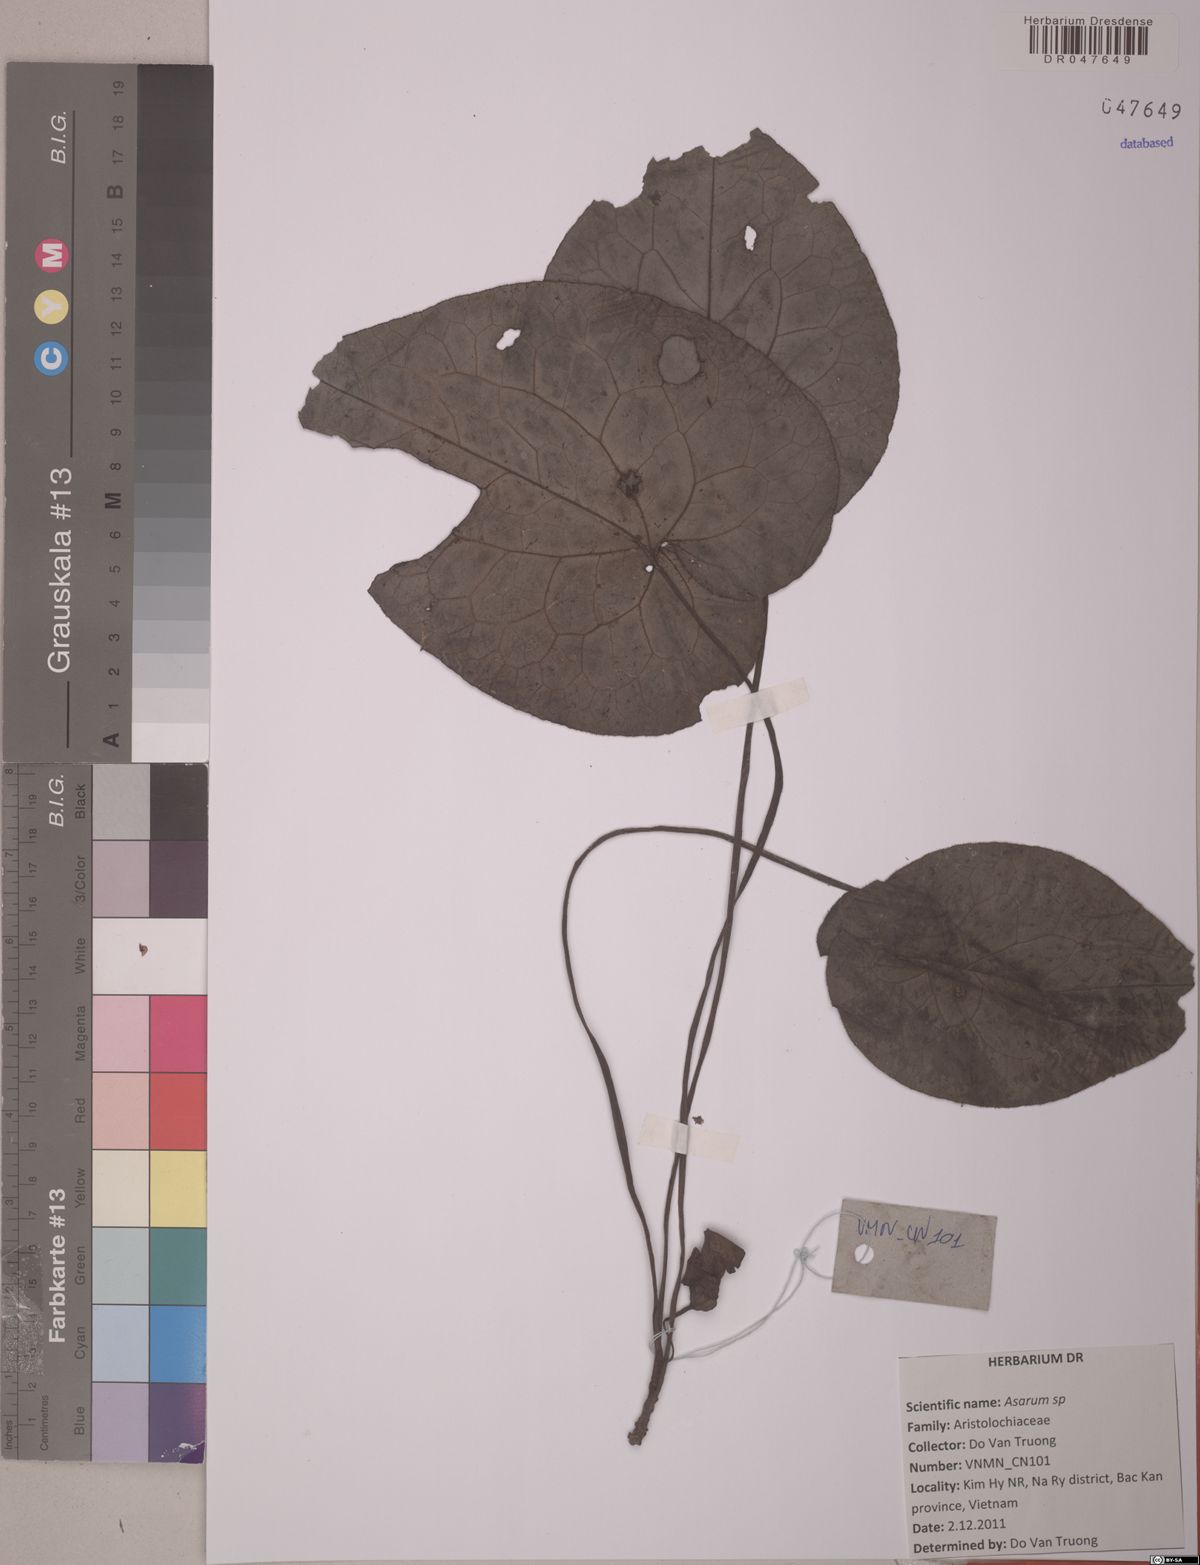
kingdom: Plantae
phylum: Tracheophyta
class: Magnoliopsida
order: Piperales
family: Aristolochiaceae
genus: Asarum
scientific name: Asarum
